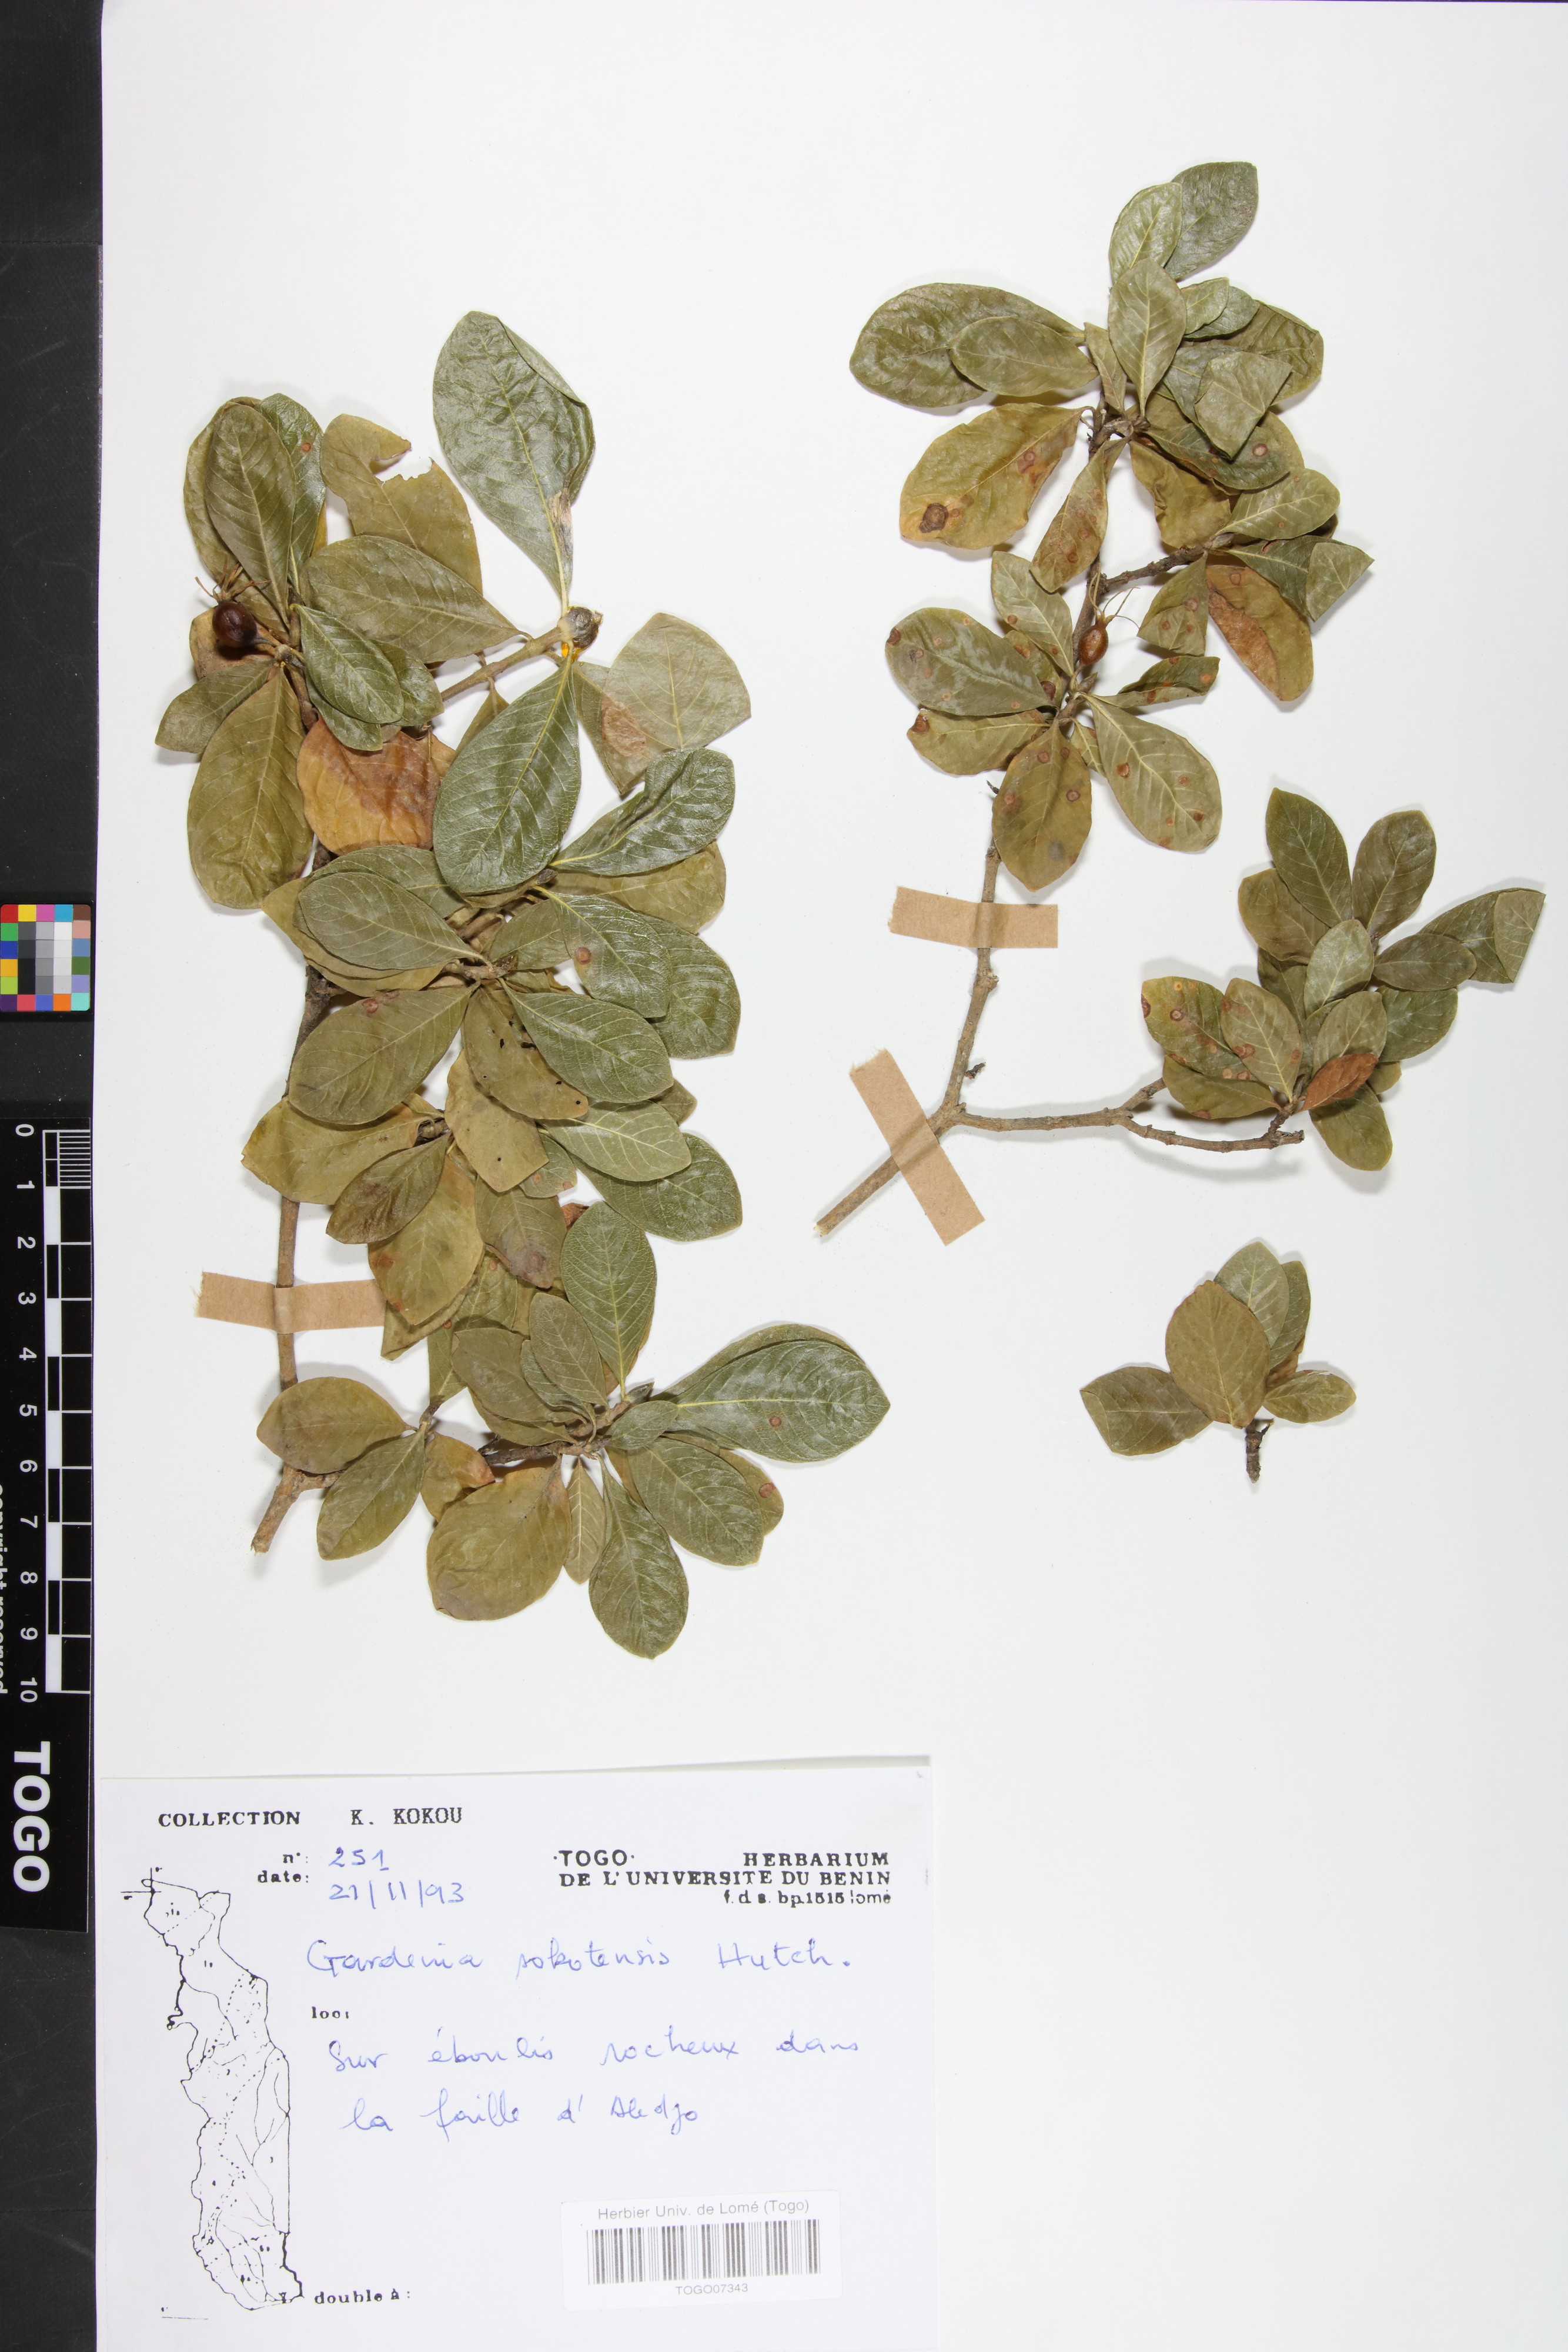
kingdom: Plantae
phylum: Tracheophyta
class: Magnoliopsida
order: Gentianales
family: Rubiaceae
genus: Gardenia
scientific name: Gardenia sokotensis
